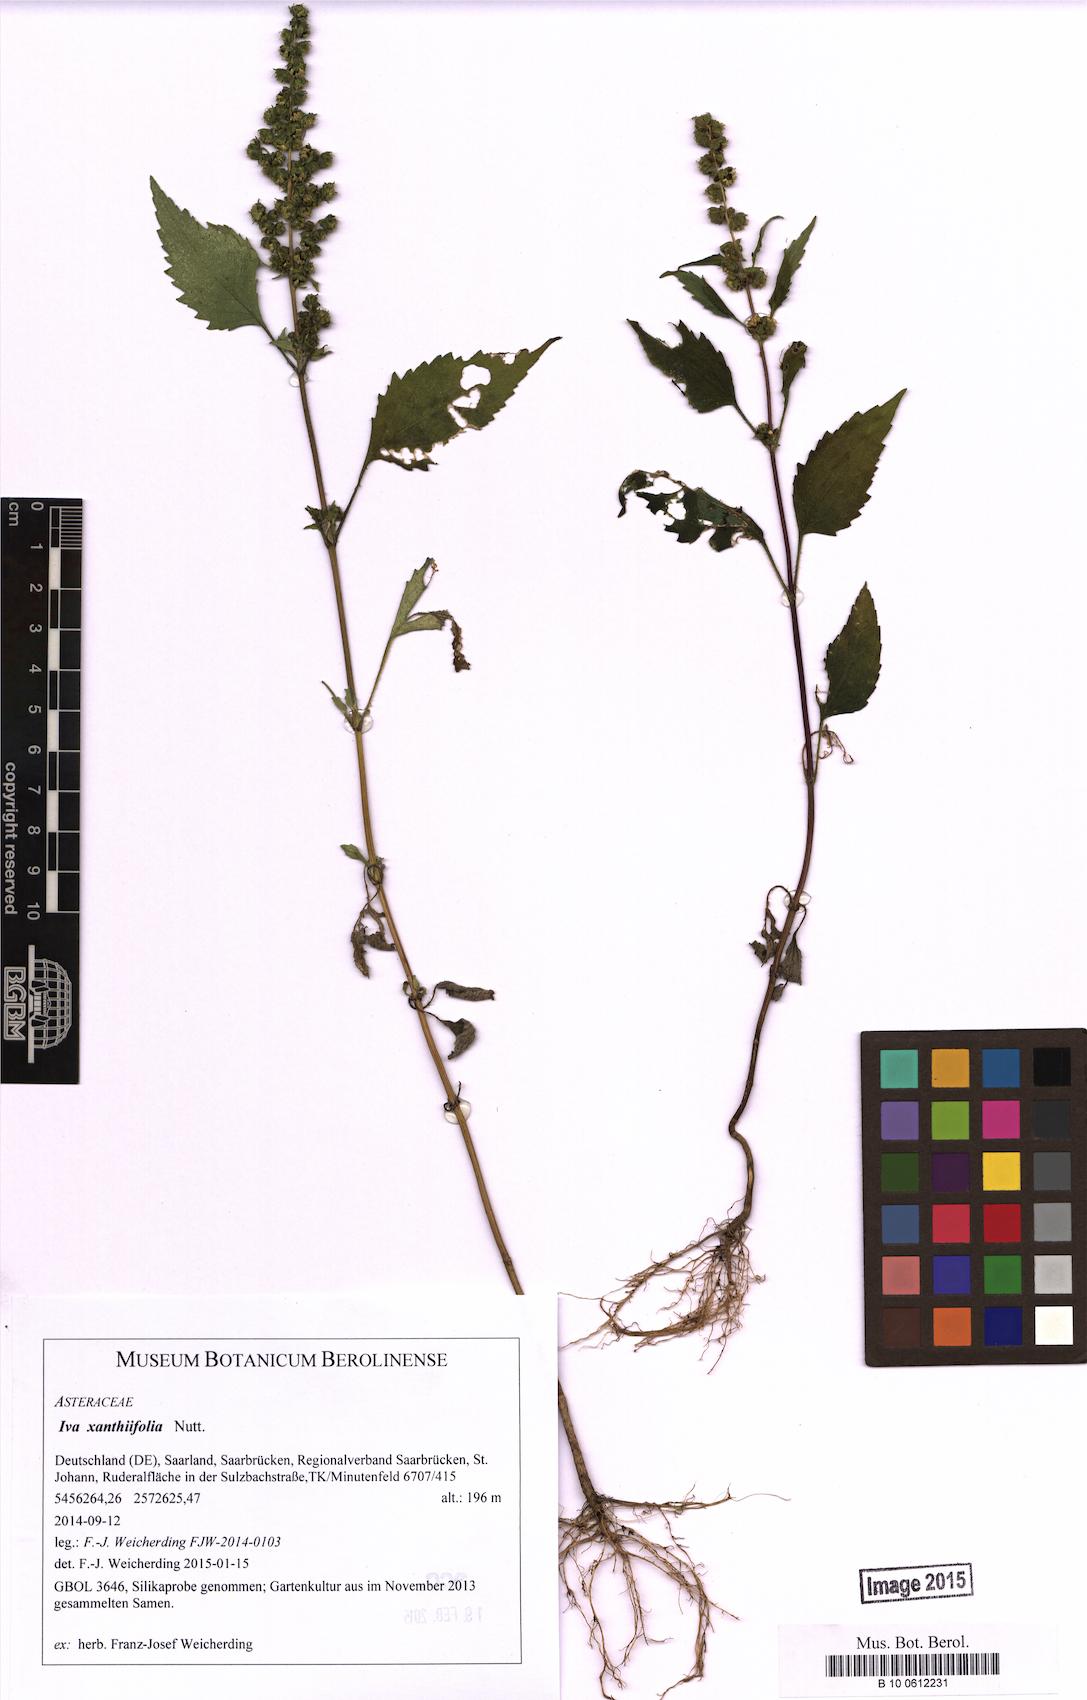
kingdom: Plantae
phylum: Tracheophyta
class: Magnoliopsida
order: Asterales
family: Asteraceae
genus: Cyclachaena
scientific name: Cyclachaena xanthiifolia
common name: Giant sumpweed
